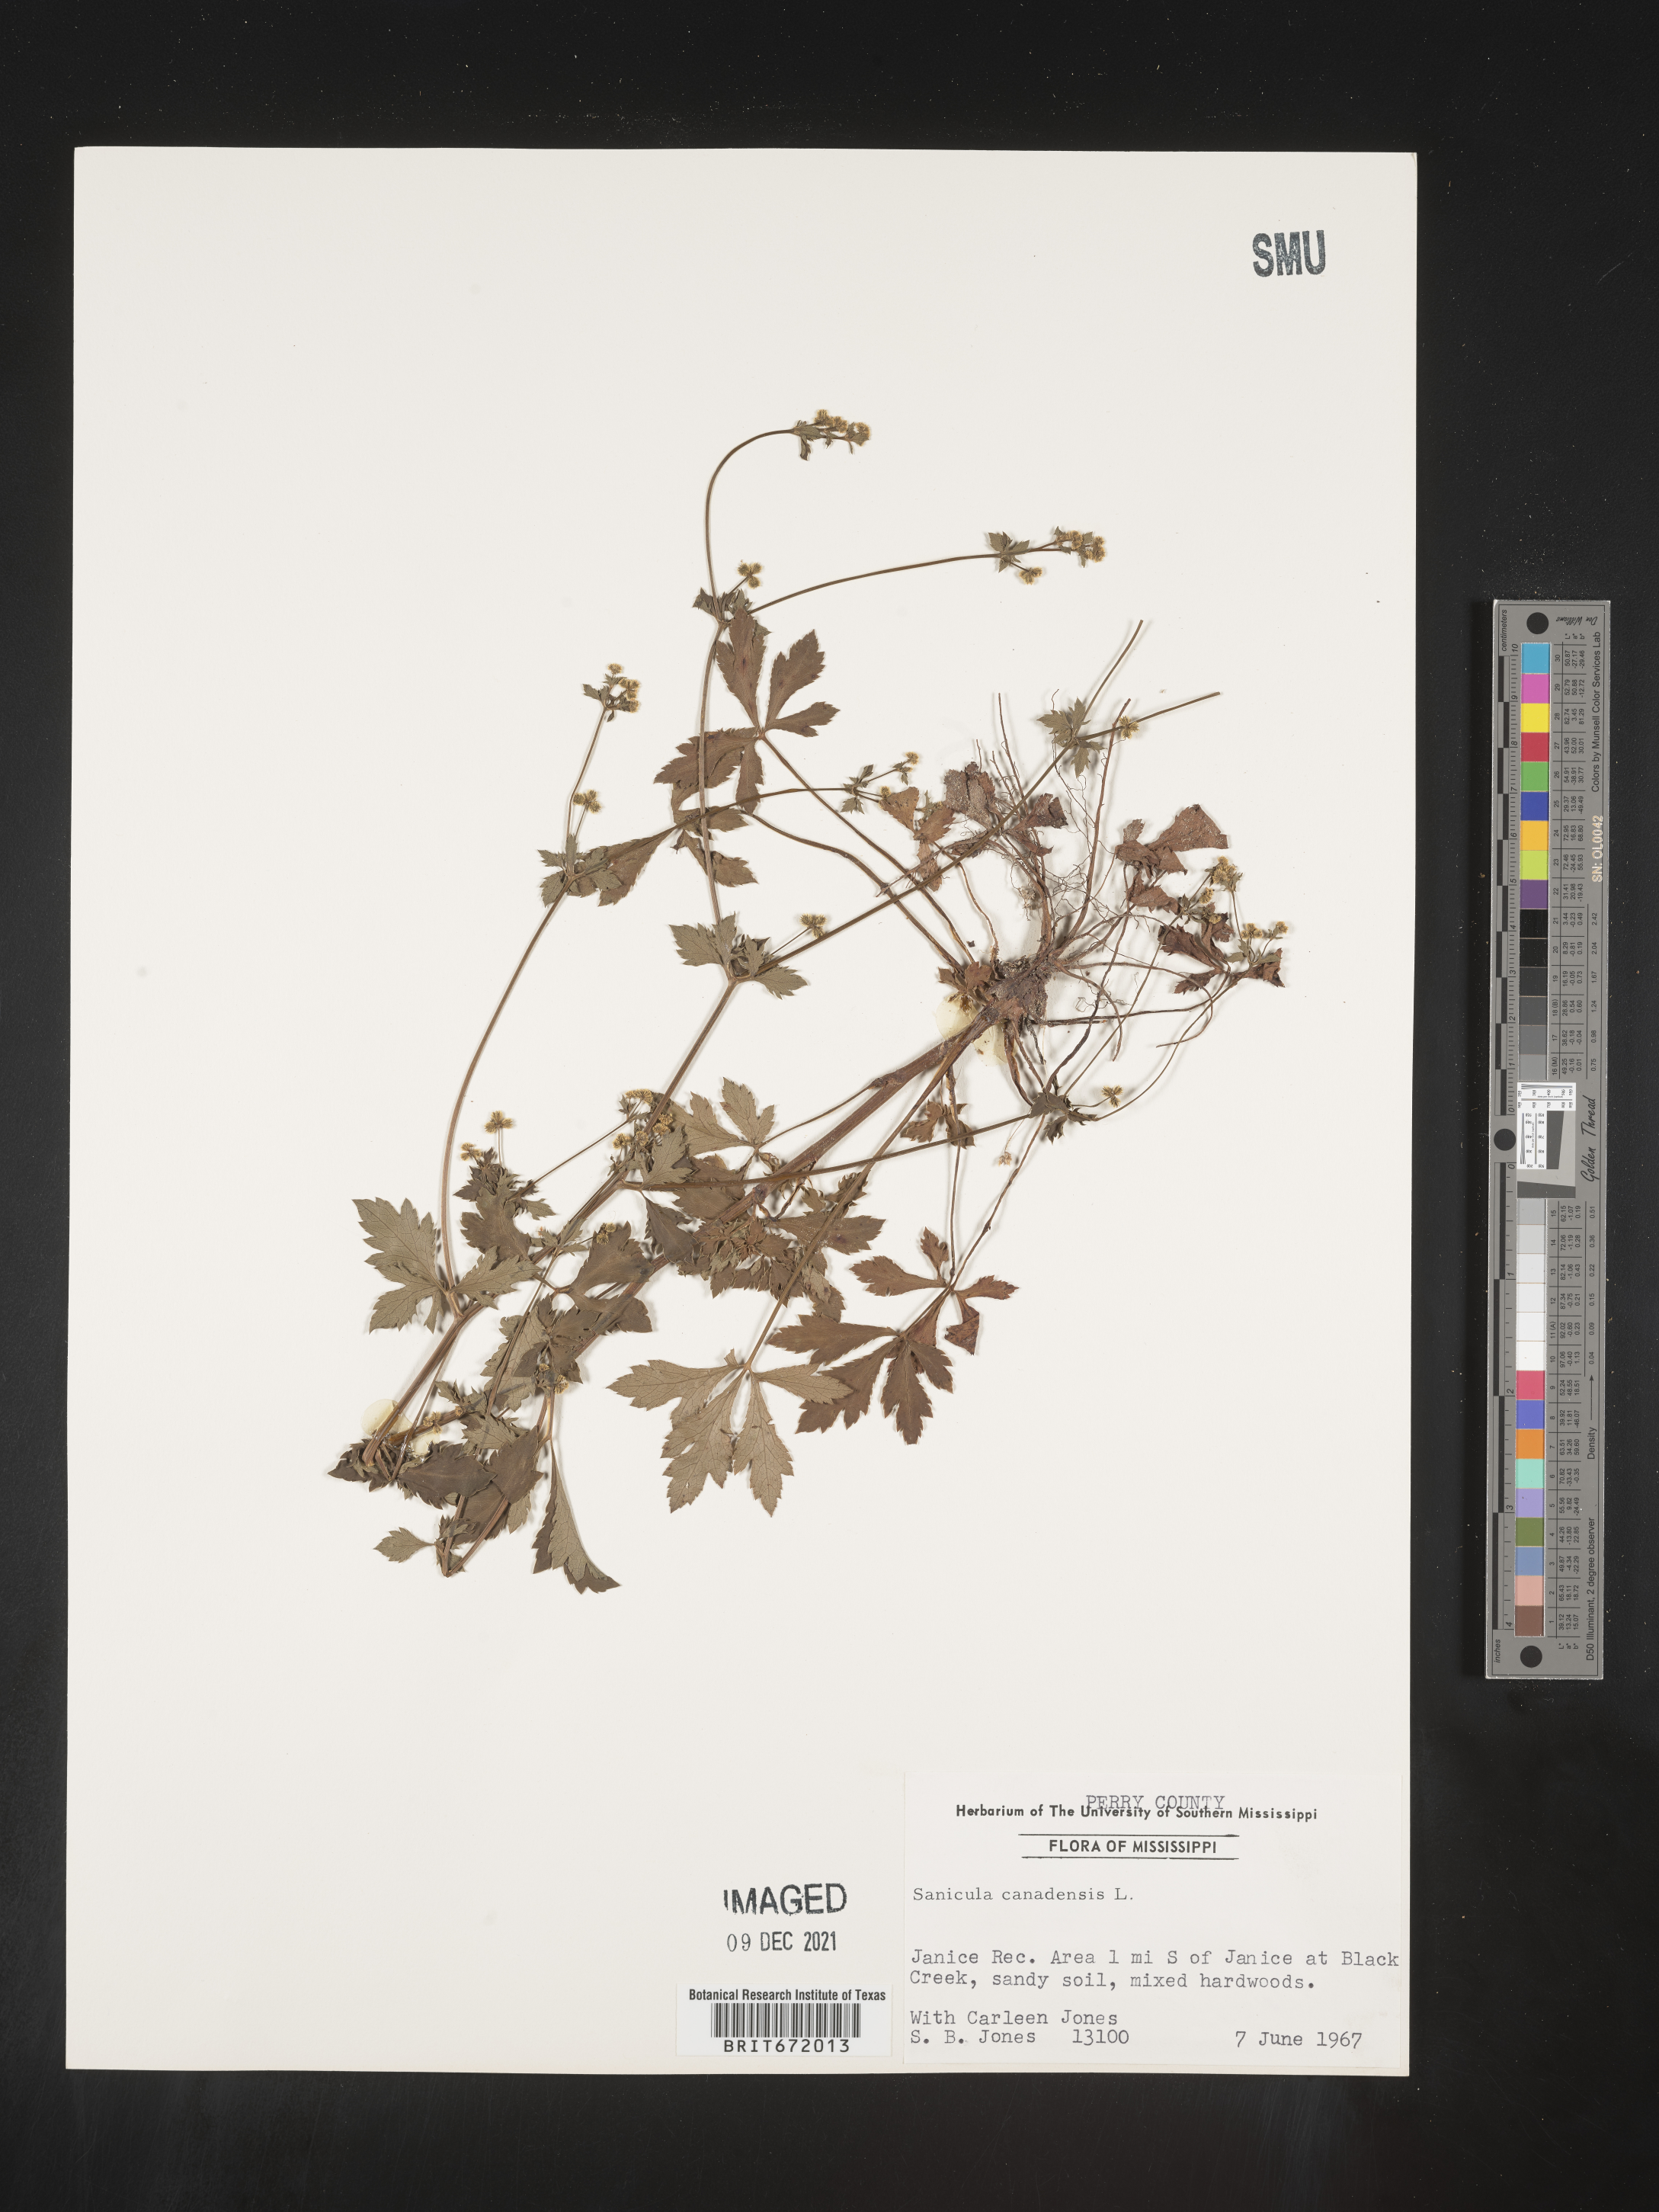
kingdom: Plantae
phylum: Tracheophyta
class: Magnoliopsida
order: Apiales
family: Apiaceae
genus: Sanicula
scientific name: Sanicula canadensis
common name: Canada sanicle
